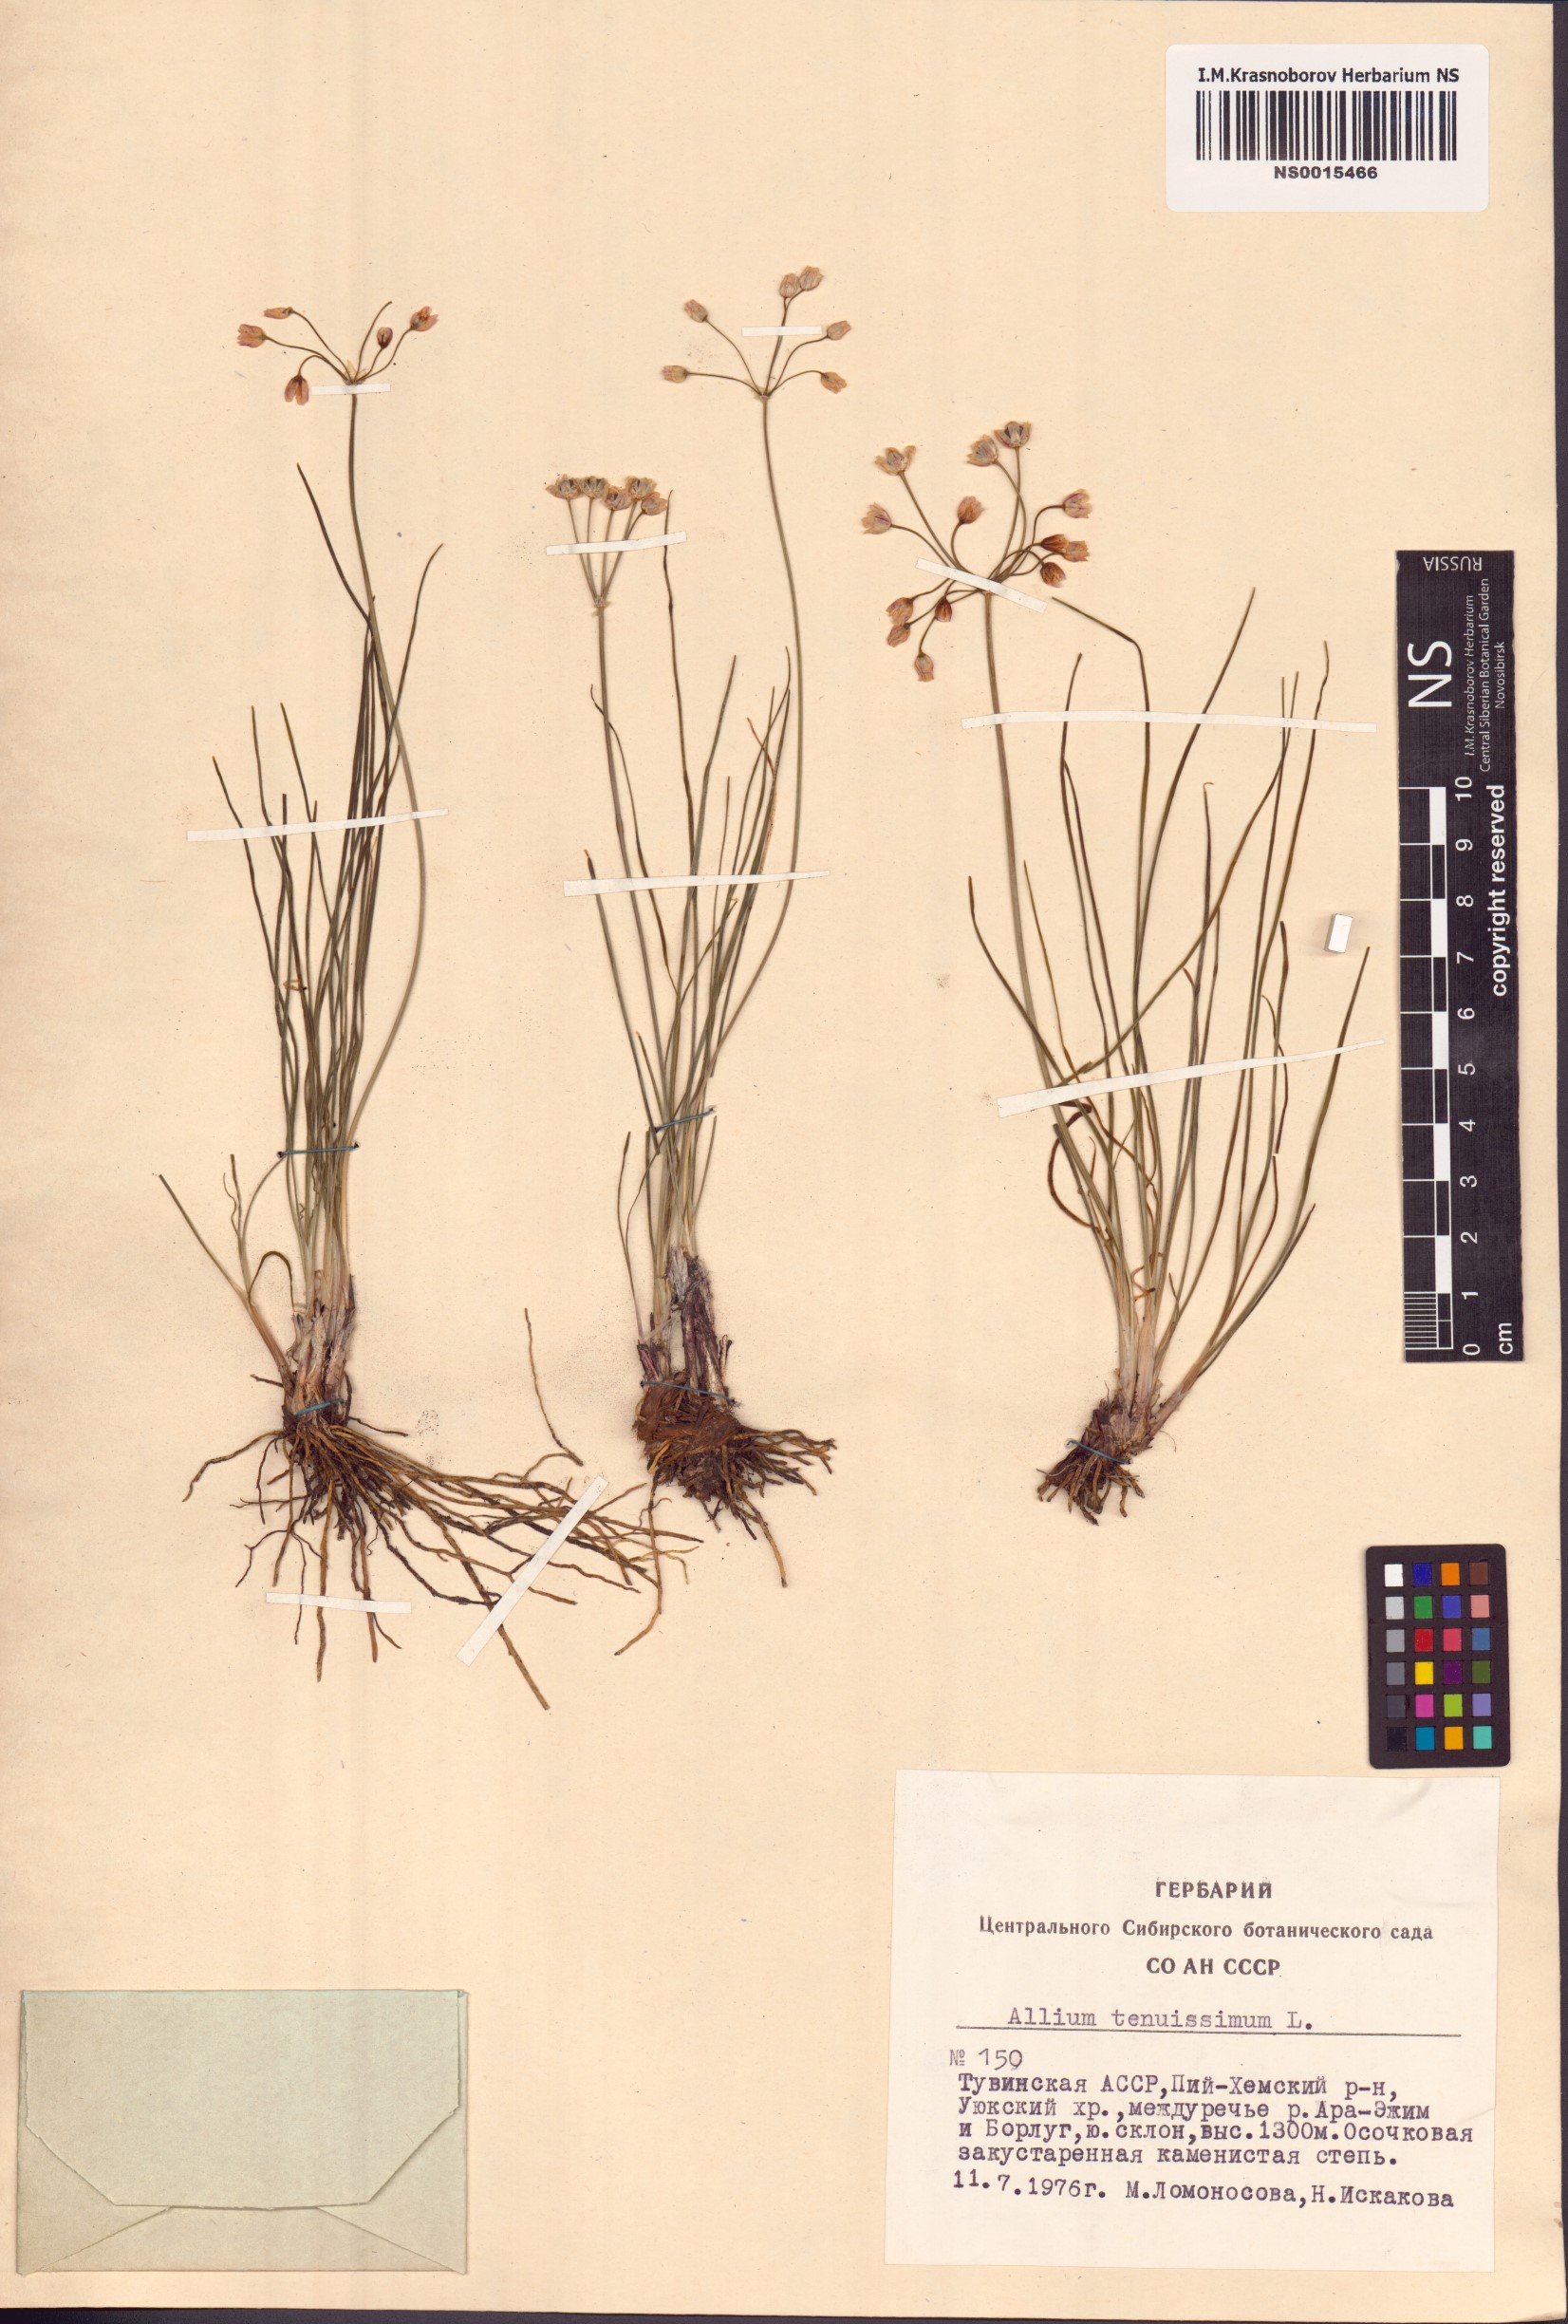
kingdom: Plantae
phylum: Tracheophyta
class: Liliopsida
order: Asparagales
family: Amaryllidaceae
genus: Allium
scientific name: Allium tenuissimum
